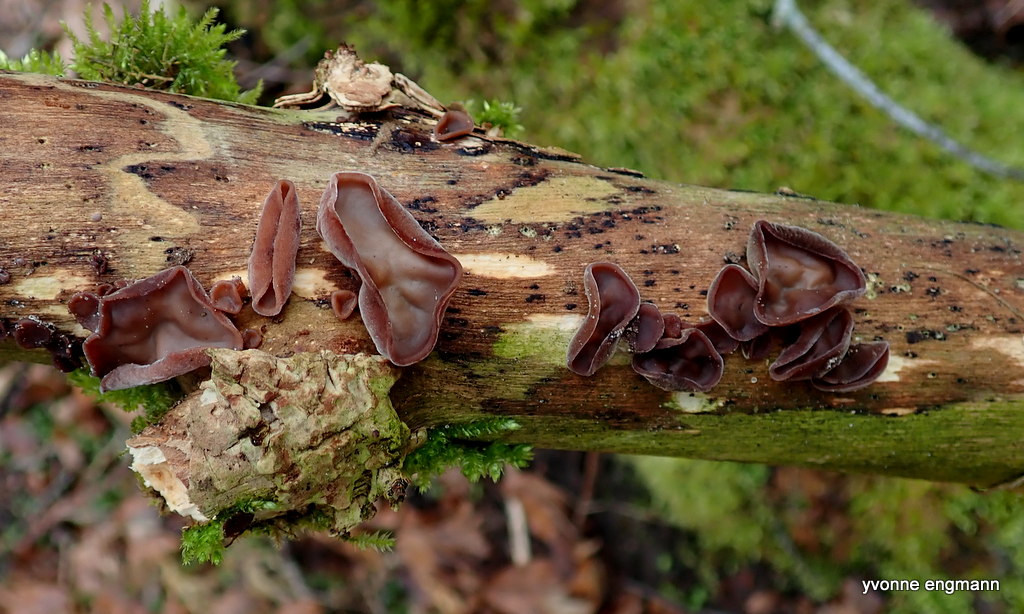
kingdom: Fungi
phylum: Basidiomycota
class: Agaricomycetes
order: Auriculariales
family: Auriculariaceae
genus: Auricularia
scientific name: Auricularia auricula-judae
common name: almindelig judasøre
